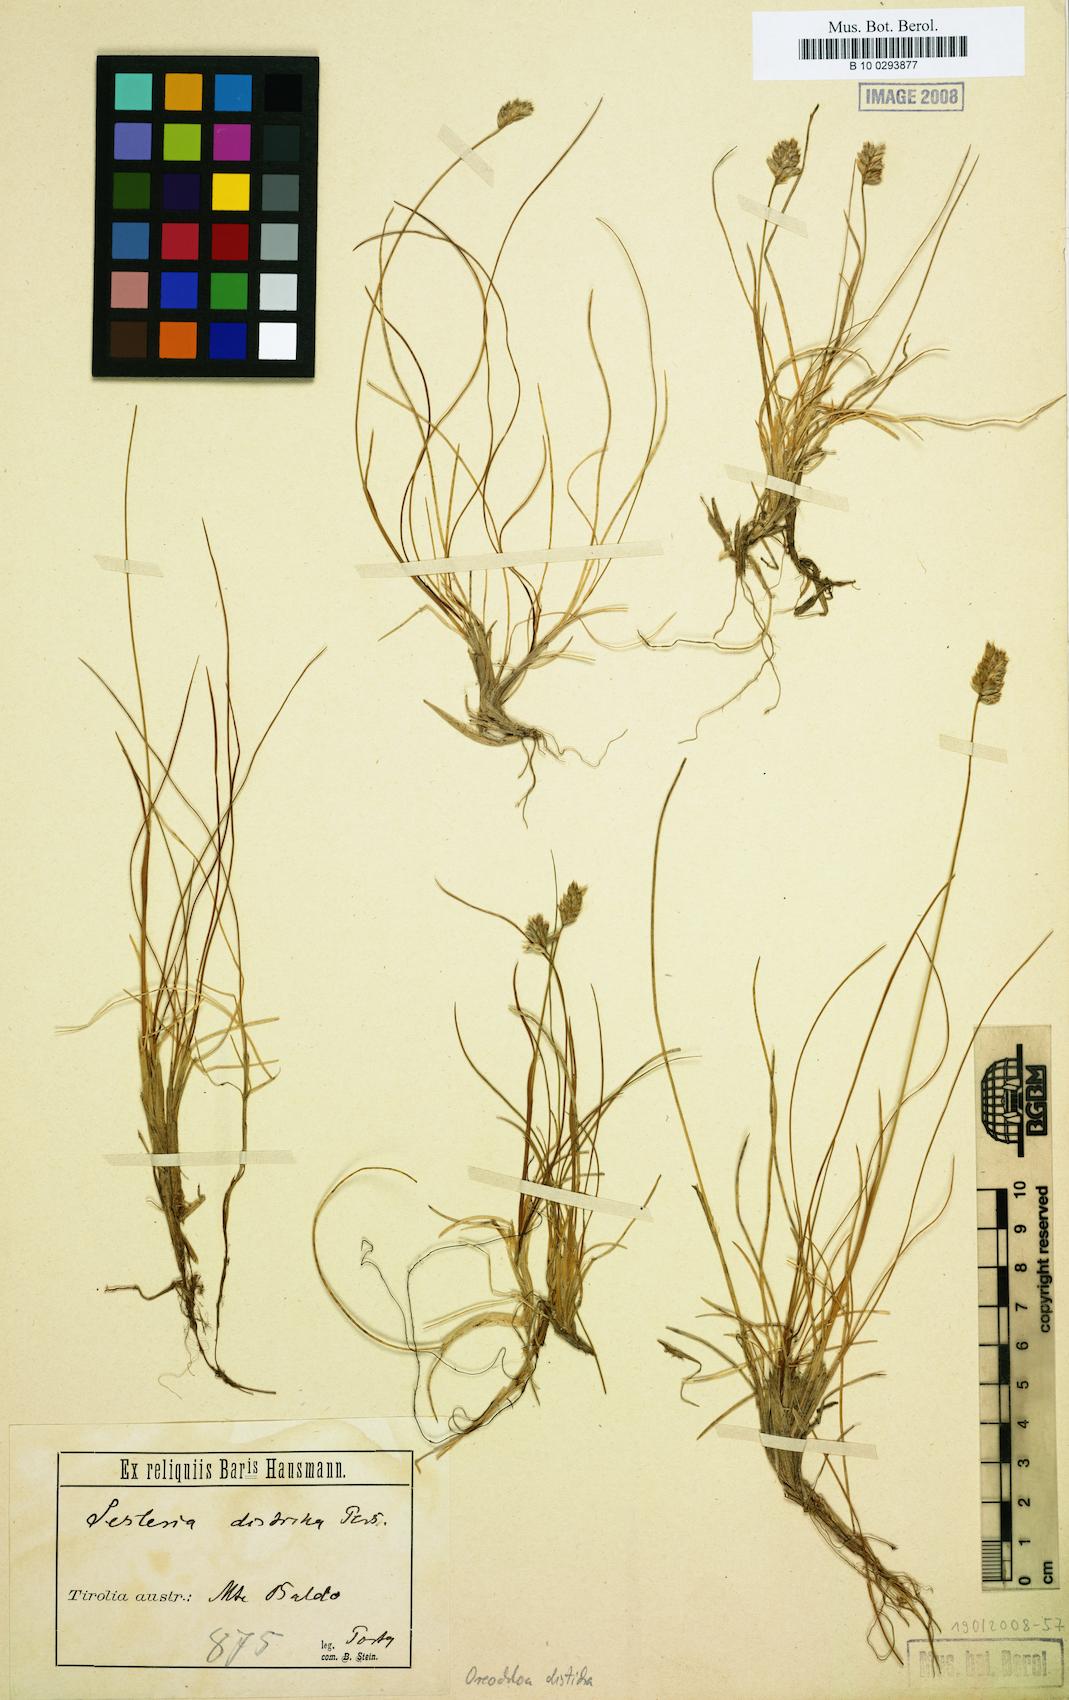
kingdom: Plantae
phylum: Tracheophyta
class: Liliopsida
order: Poales
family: Poaceae
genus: Oreochloa
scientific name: Oreochloa disticha
